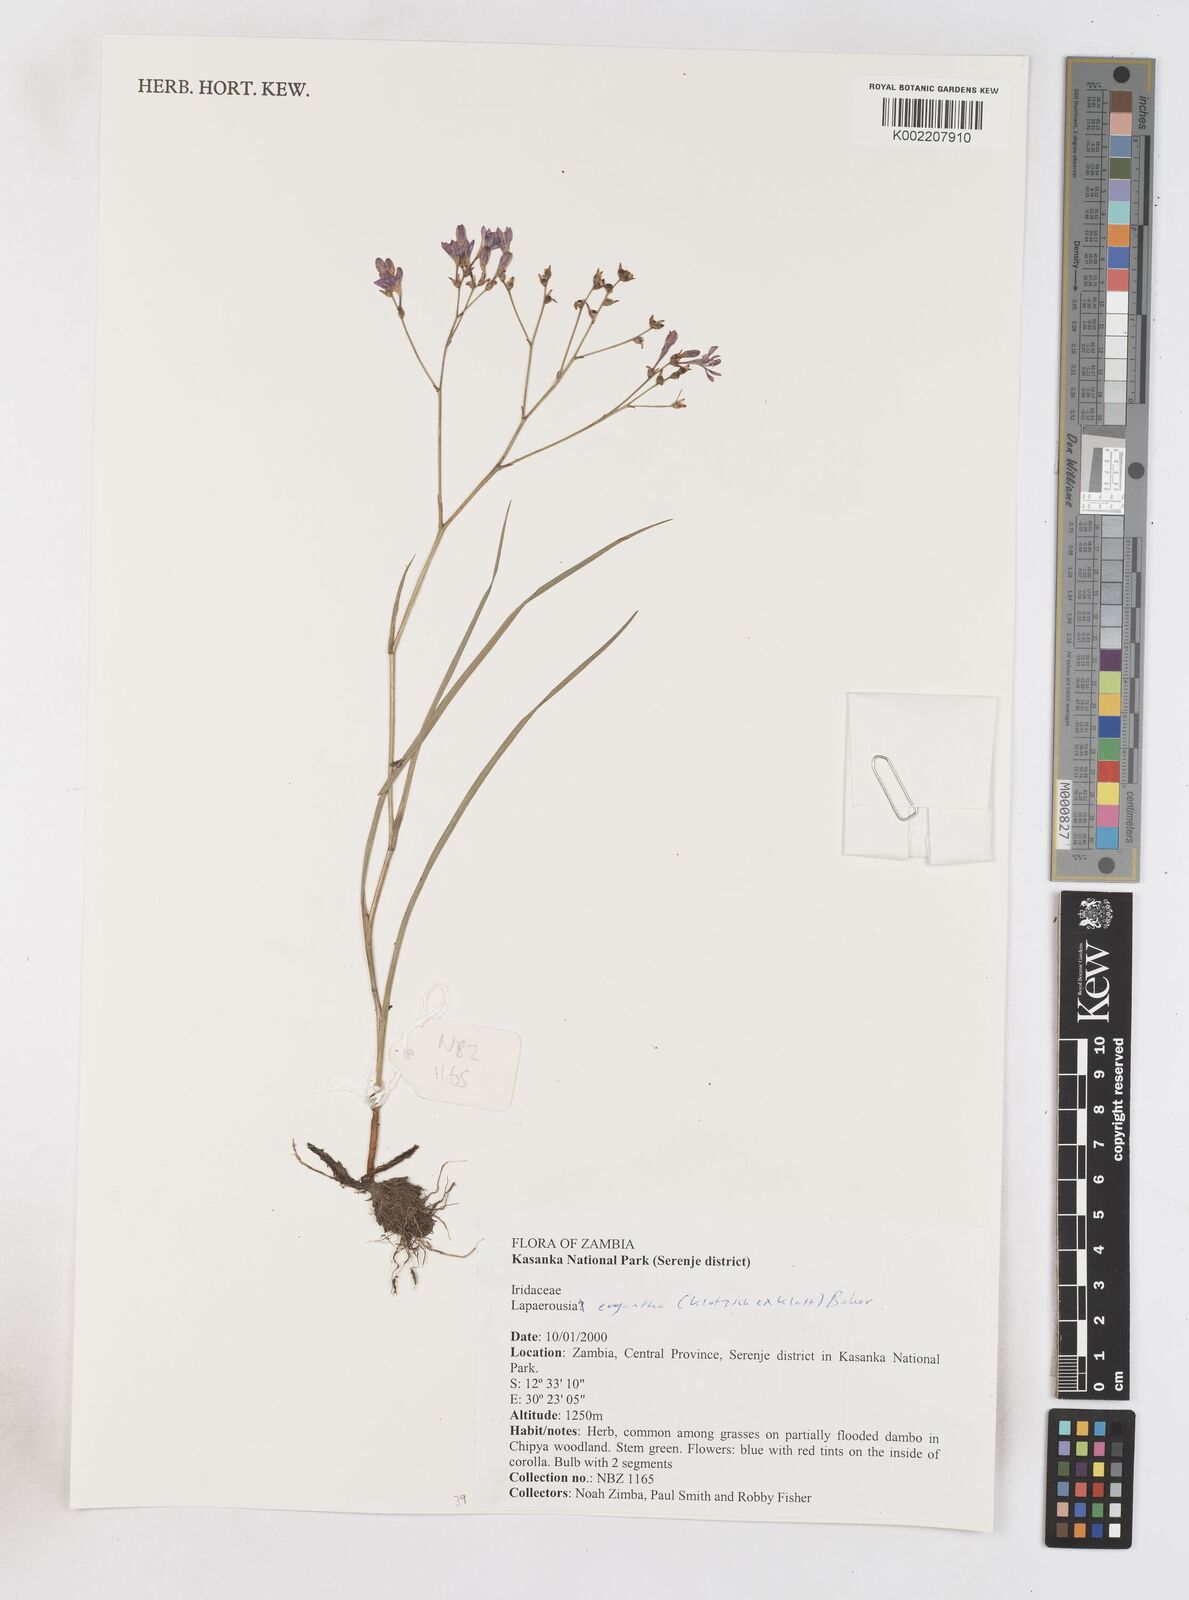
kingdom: Plantae
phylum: Tracheophyta
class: Liliopsida
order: Asparagales
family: Iridaceae
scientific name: Iridaceae
